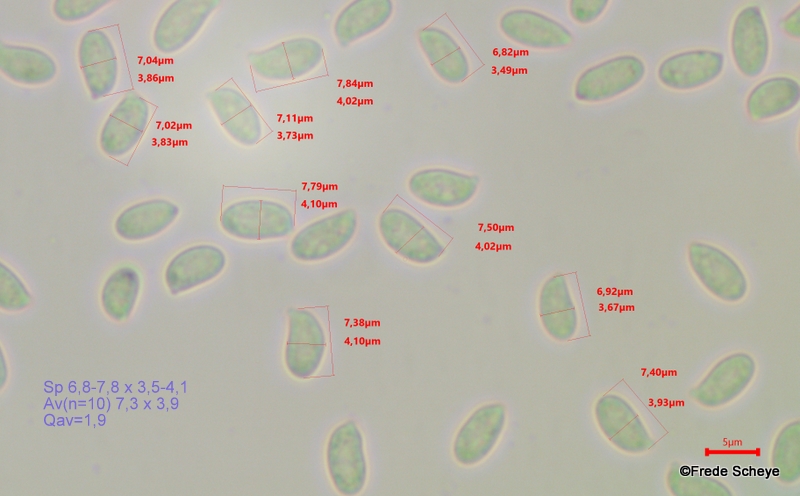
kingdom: Fungi
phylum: Basidiomycota
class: Agaricomycetes
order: Agaricales
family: Physalacriaceae
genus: Flammulina
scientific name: Flammulina velutipes
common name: gul fløjlsfod
